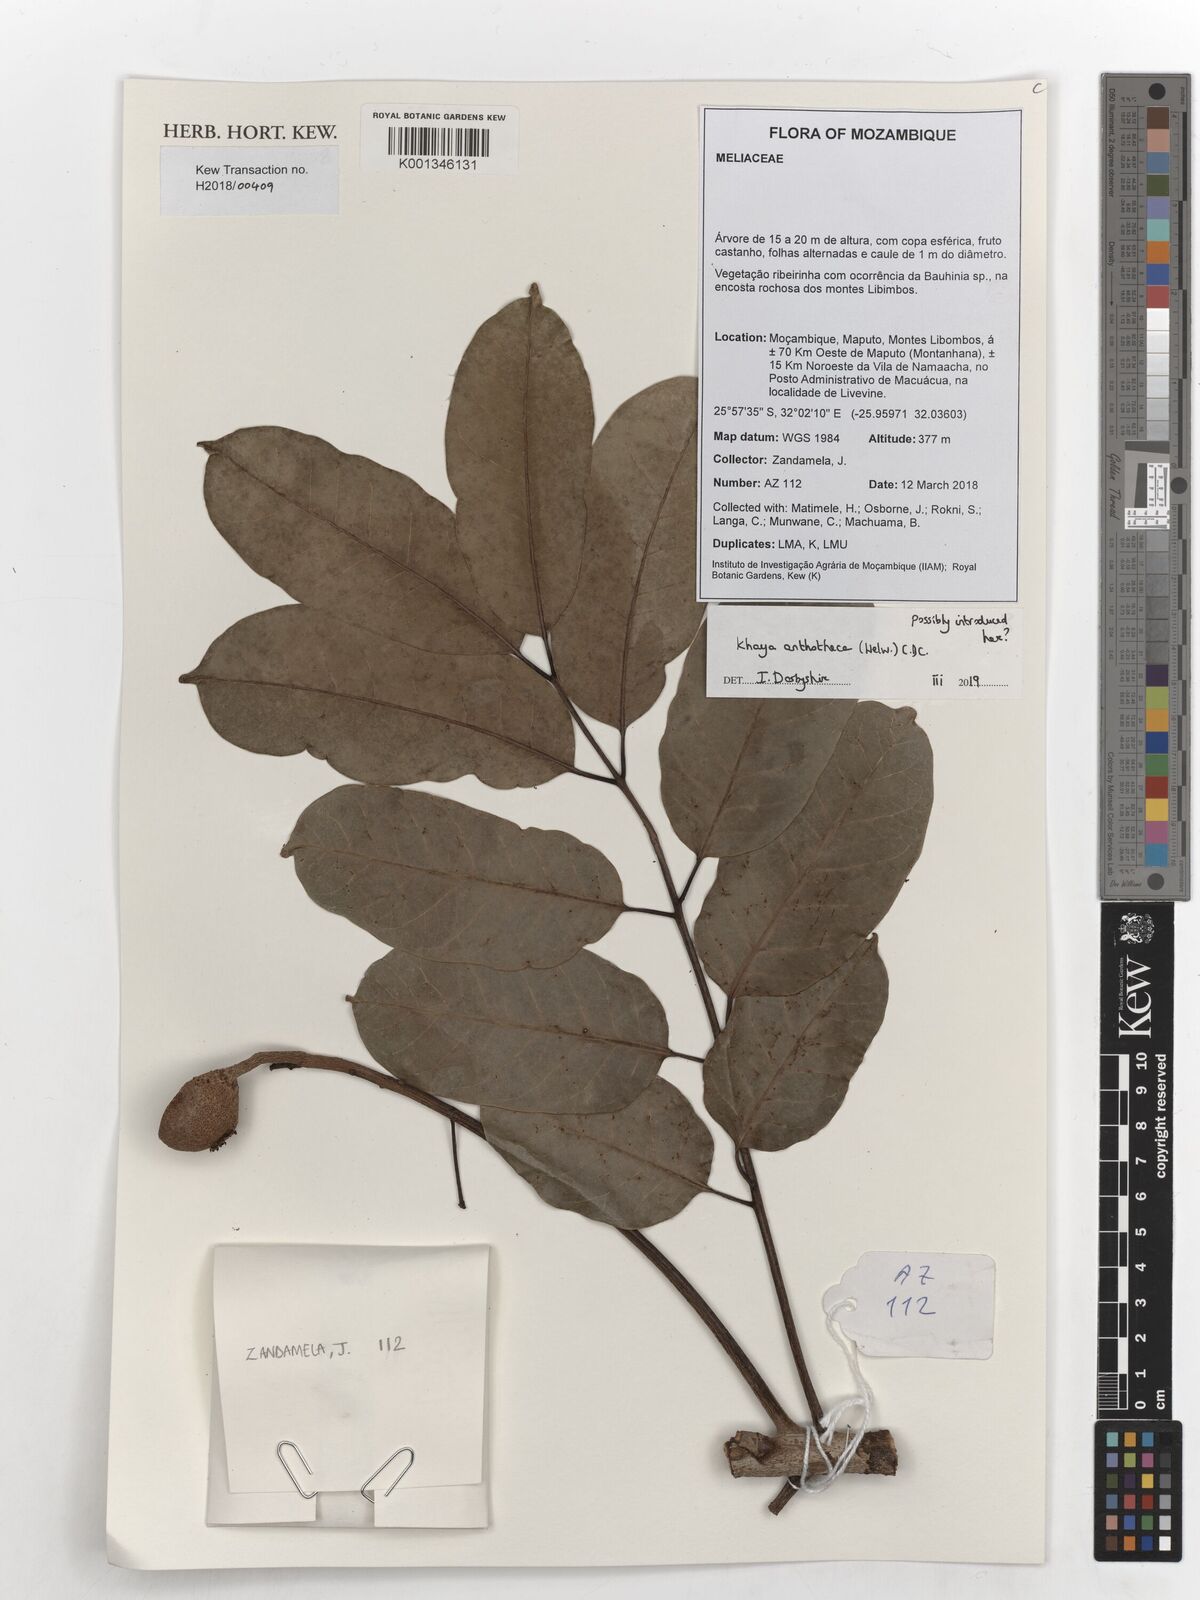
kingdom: Plantae
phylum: Tracheophyta
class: Magnoliopsida
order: Sapindales
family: Meliaceae
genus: Khaya
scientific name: Khaya anthotheca
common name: Nyasaland mahogany
